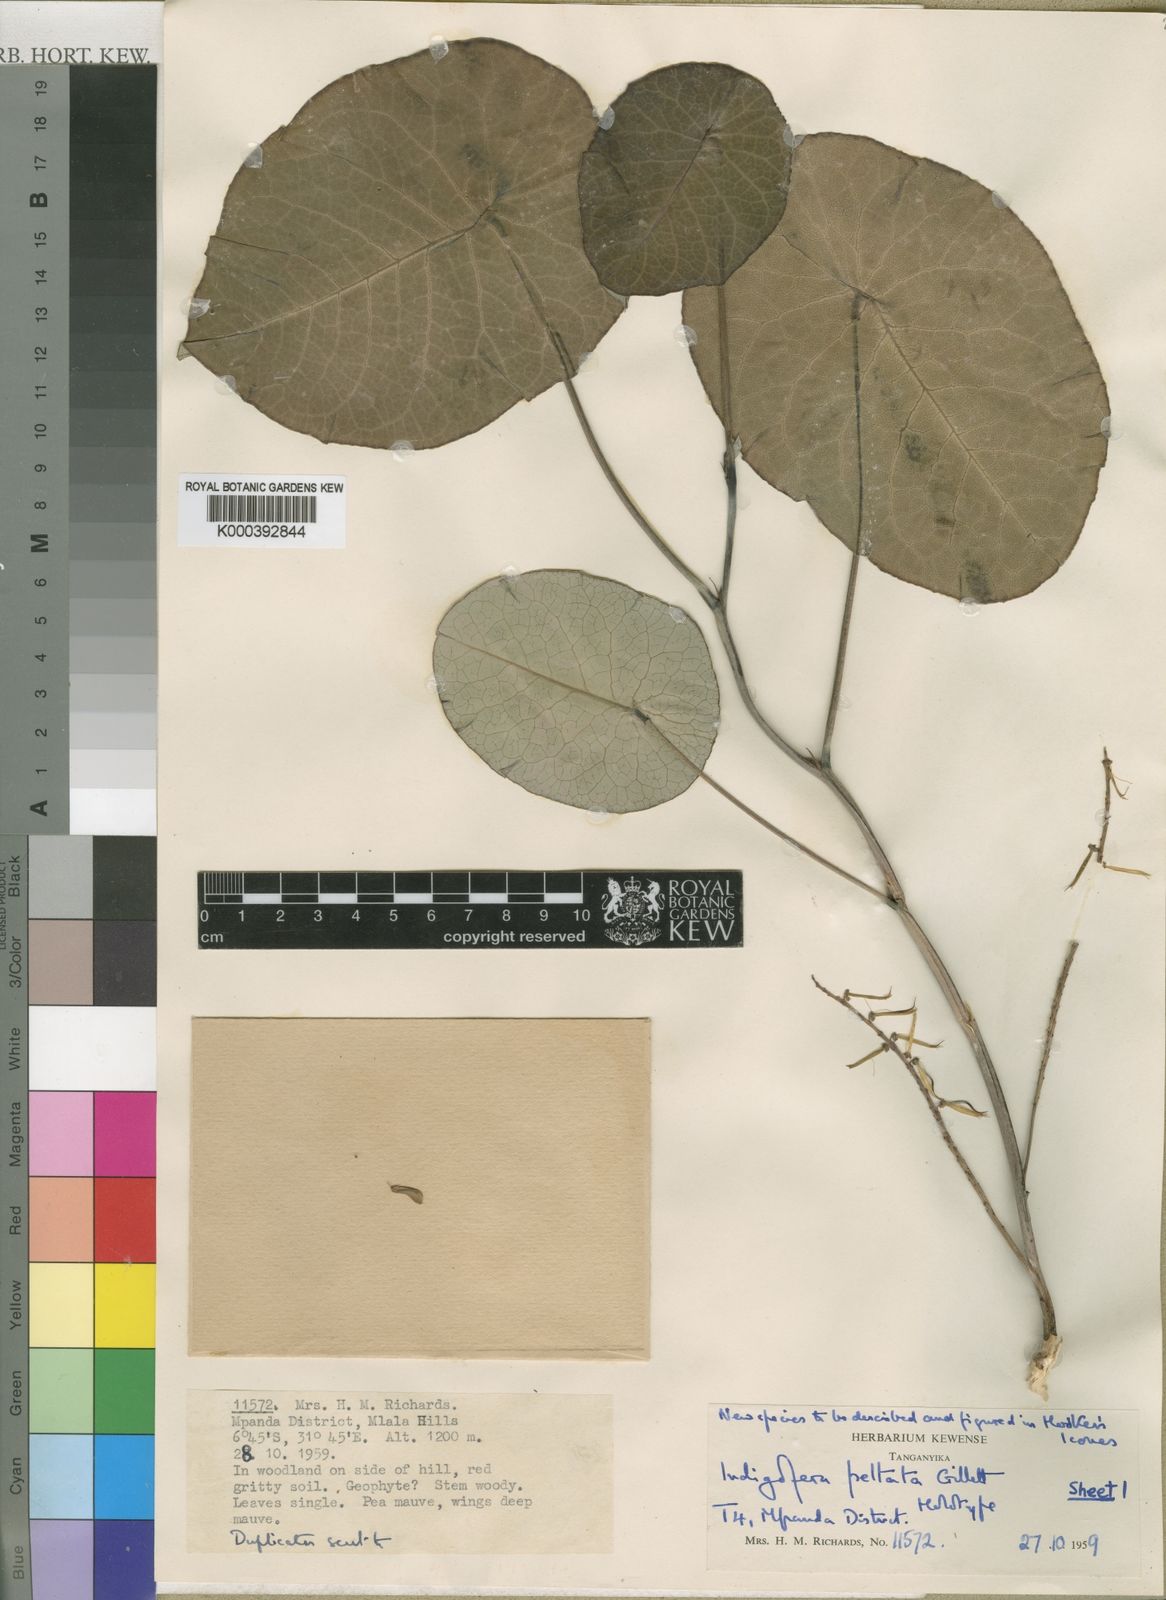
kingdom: Plantae
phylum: Tracheophyta
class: Magnoliopsida
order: Fabales
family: Fabaceae
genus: Indigofera
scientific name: Indigofera peltata
